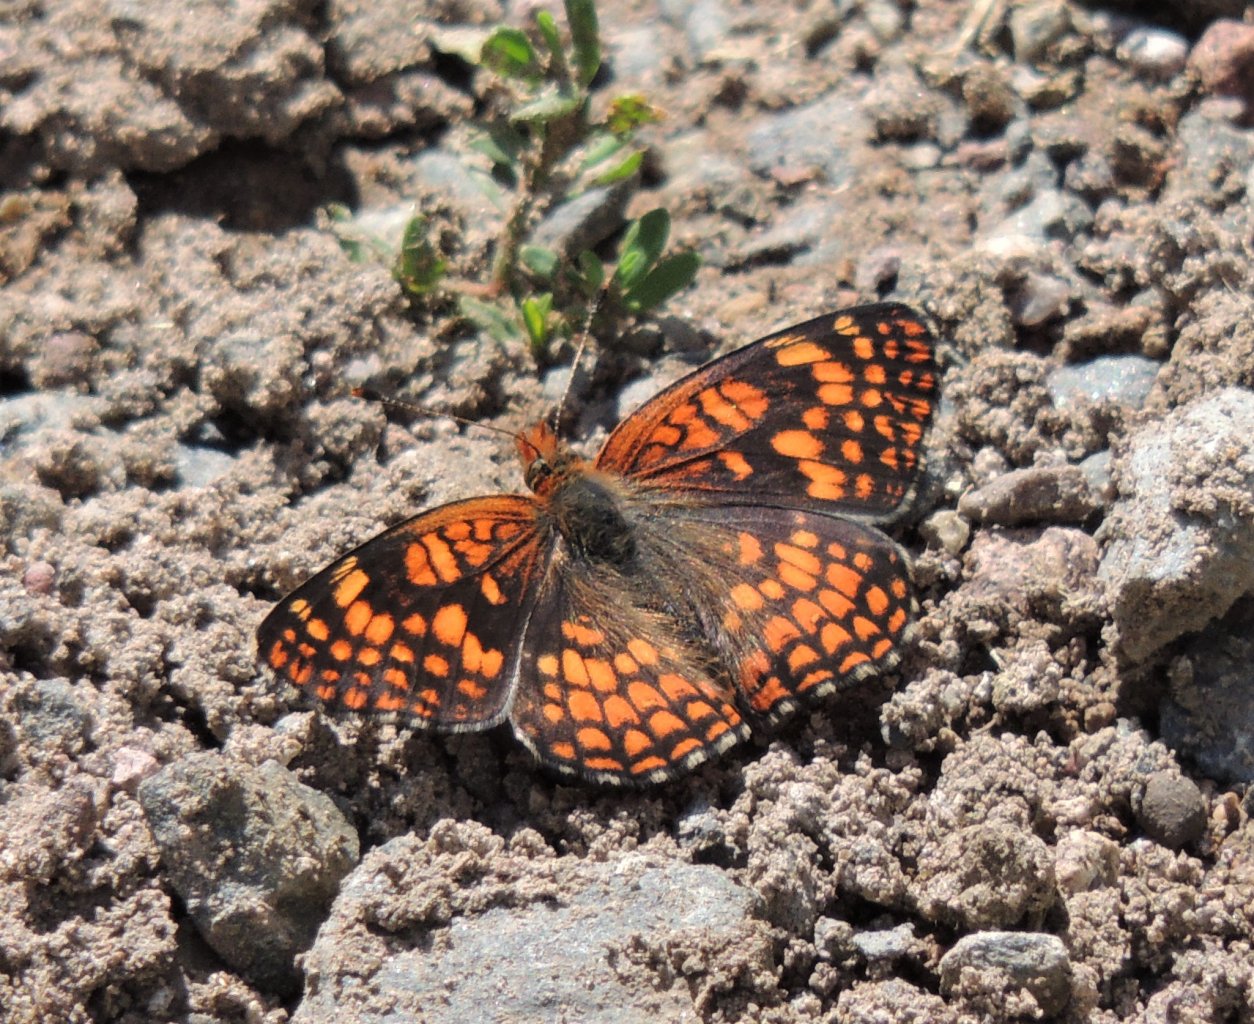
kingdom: Animalia
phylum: Arthropoda
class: Insecta
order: Lepidoptera
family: Nymphalidae
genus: Chlosyne
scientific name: Chlosyne palla
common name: Northern Checkerspot
